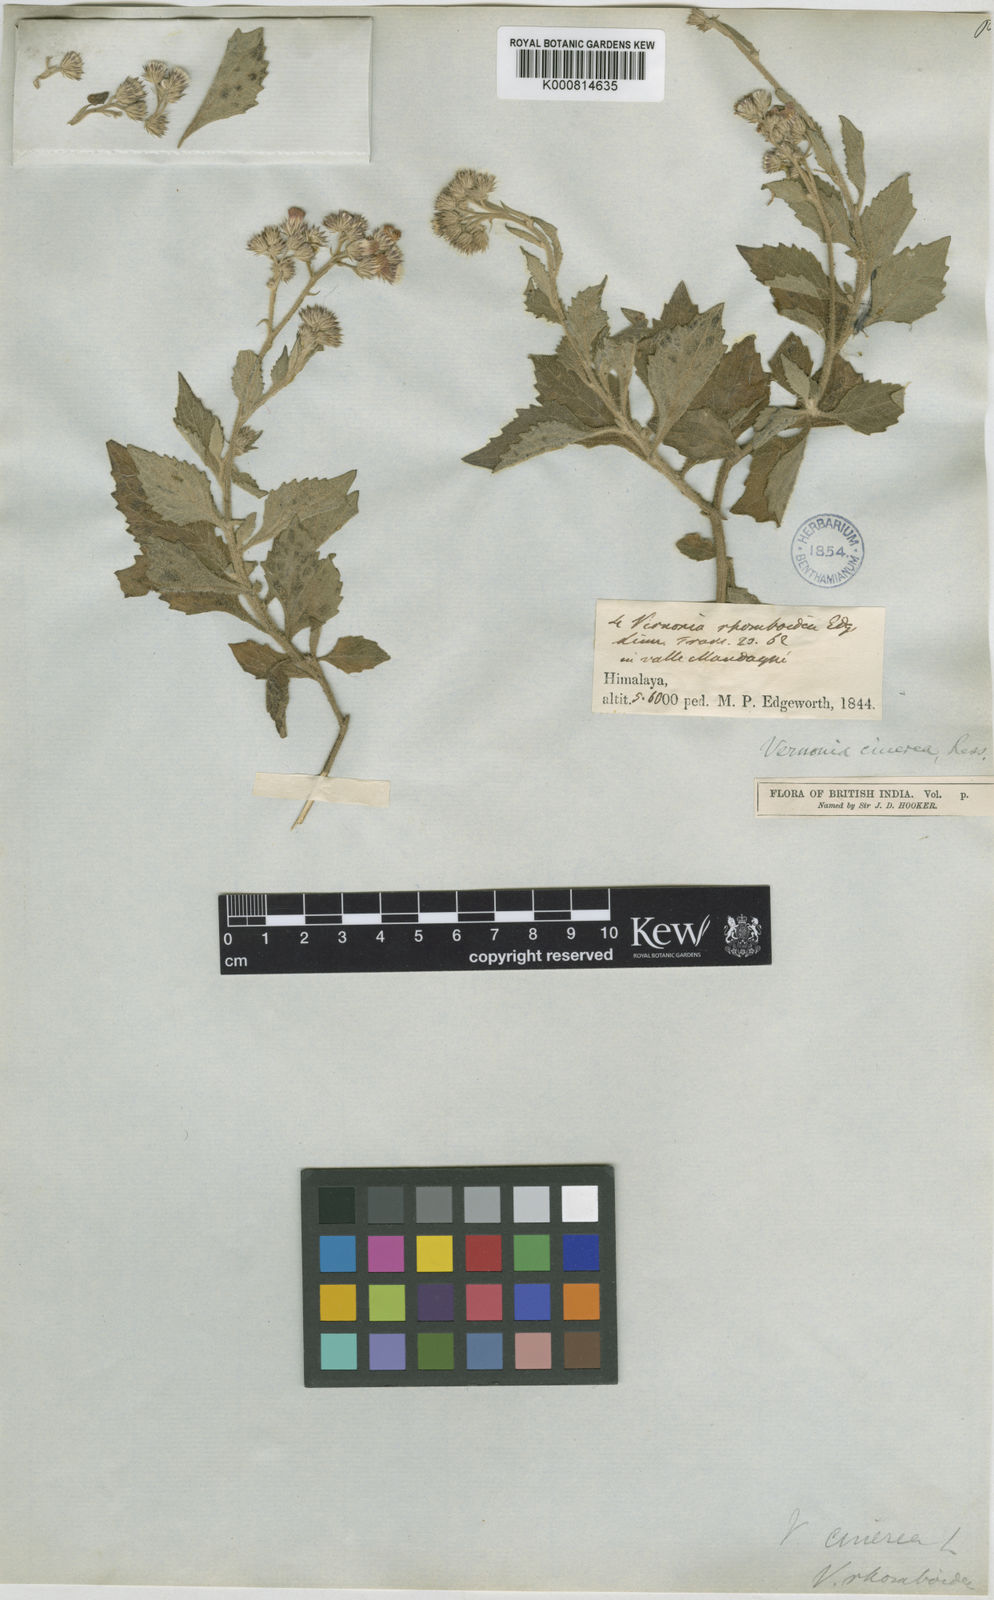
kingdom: Plantae
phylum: Tracheophyta
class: Magnoliopsida
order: Asterales
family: Asteraceae
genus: Cyanthillium
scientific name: Cyanthillium cinereum
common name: Little ironweed
